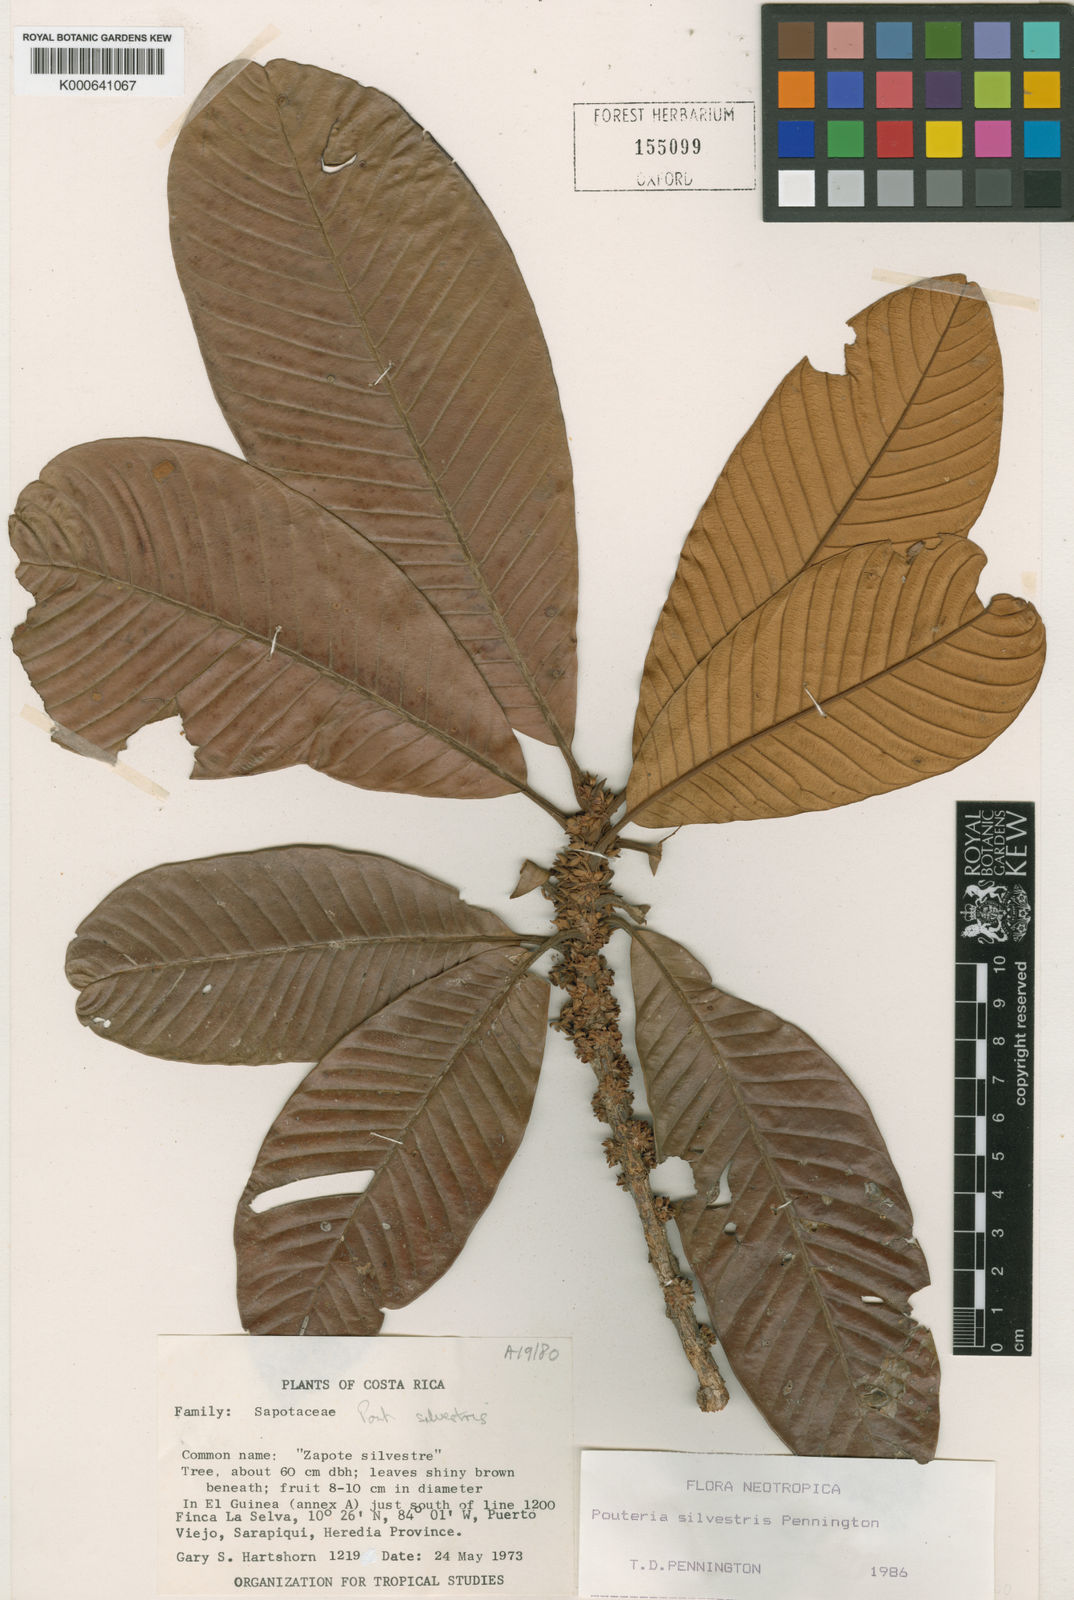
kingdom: Plantae
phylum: Tracheophyta
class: Magnoliopsida
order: Ericales
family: Sapotaceae
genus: Pouteria
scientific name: Pouteria silvestris
